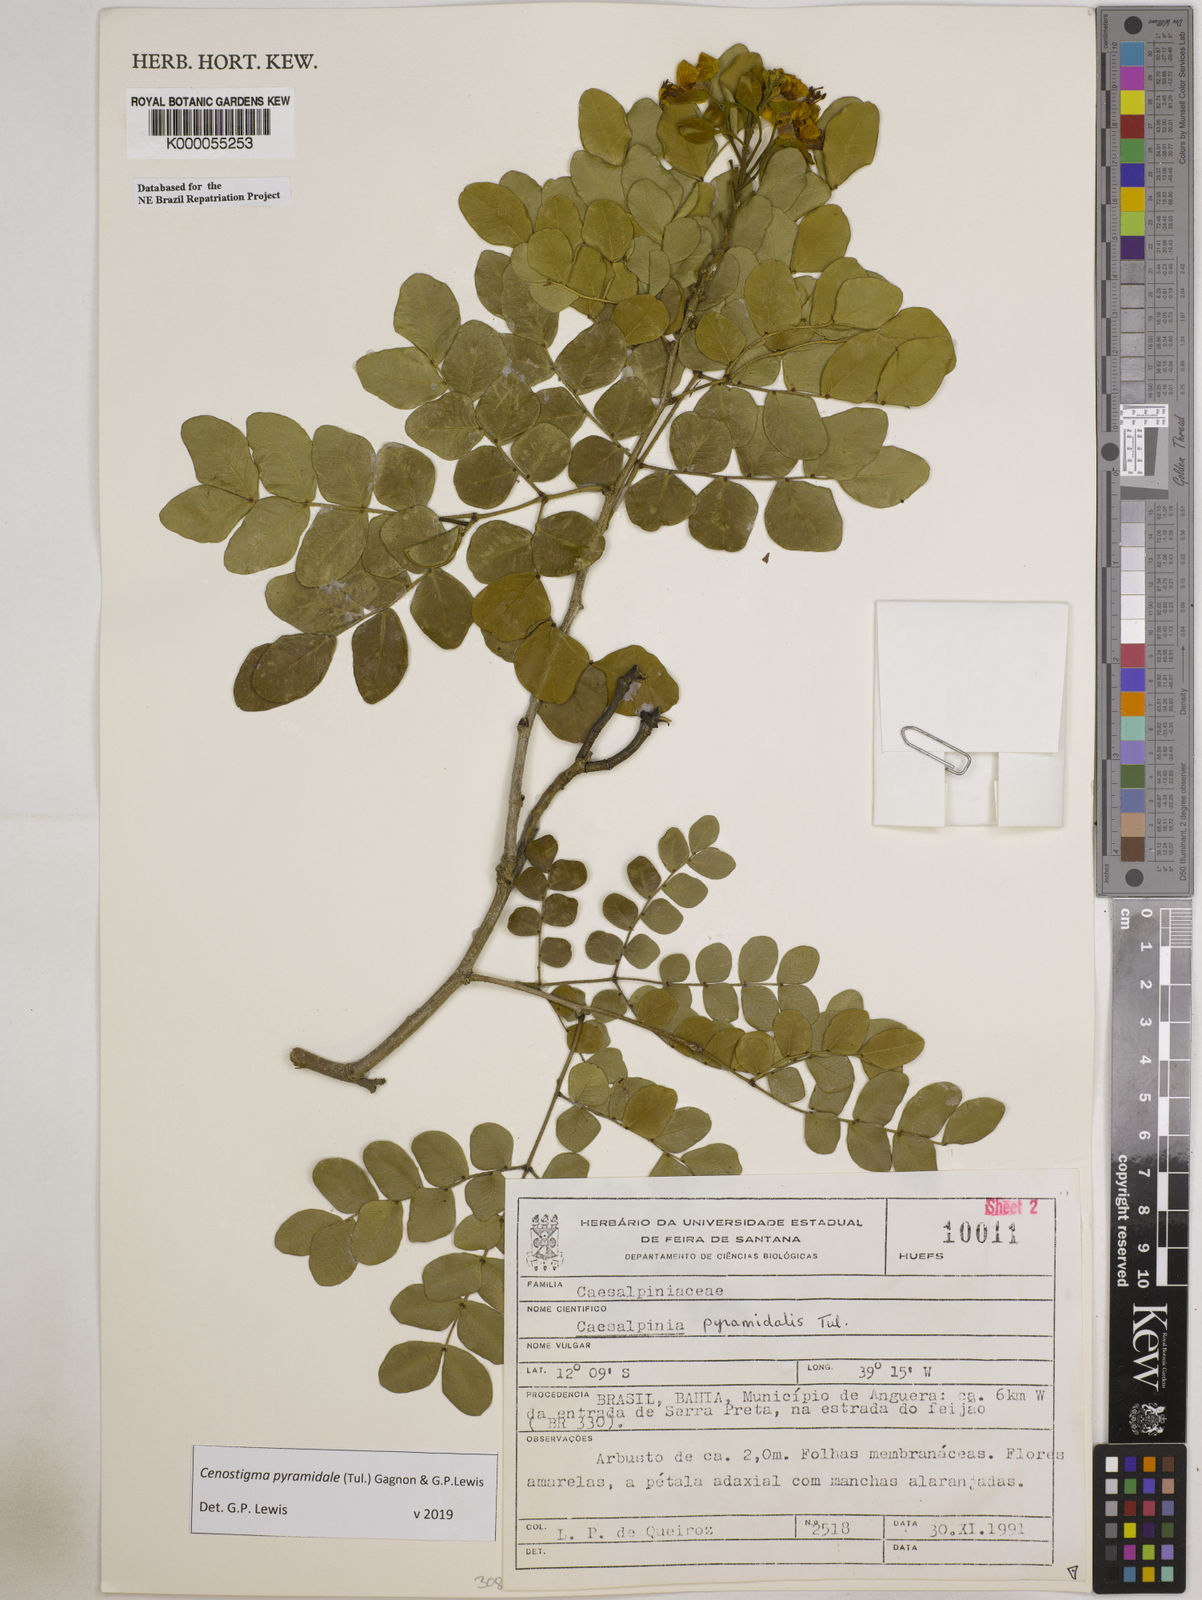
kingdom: Plantae
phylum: Tracheophyta
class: Magnoliopsida
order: Fabales
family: Fabaceae
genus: Cenostigma
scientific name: Cenostigma pyramidale
